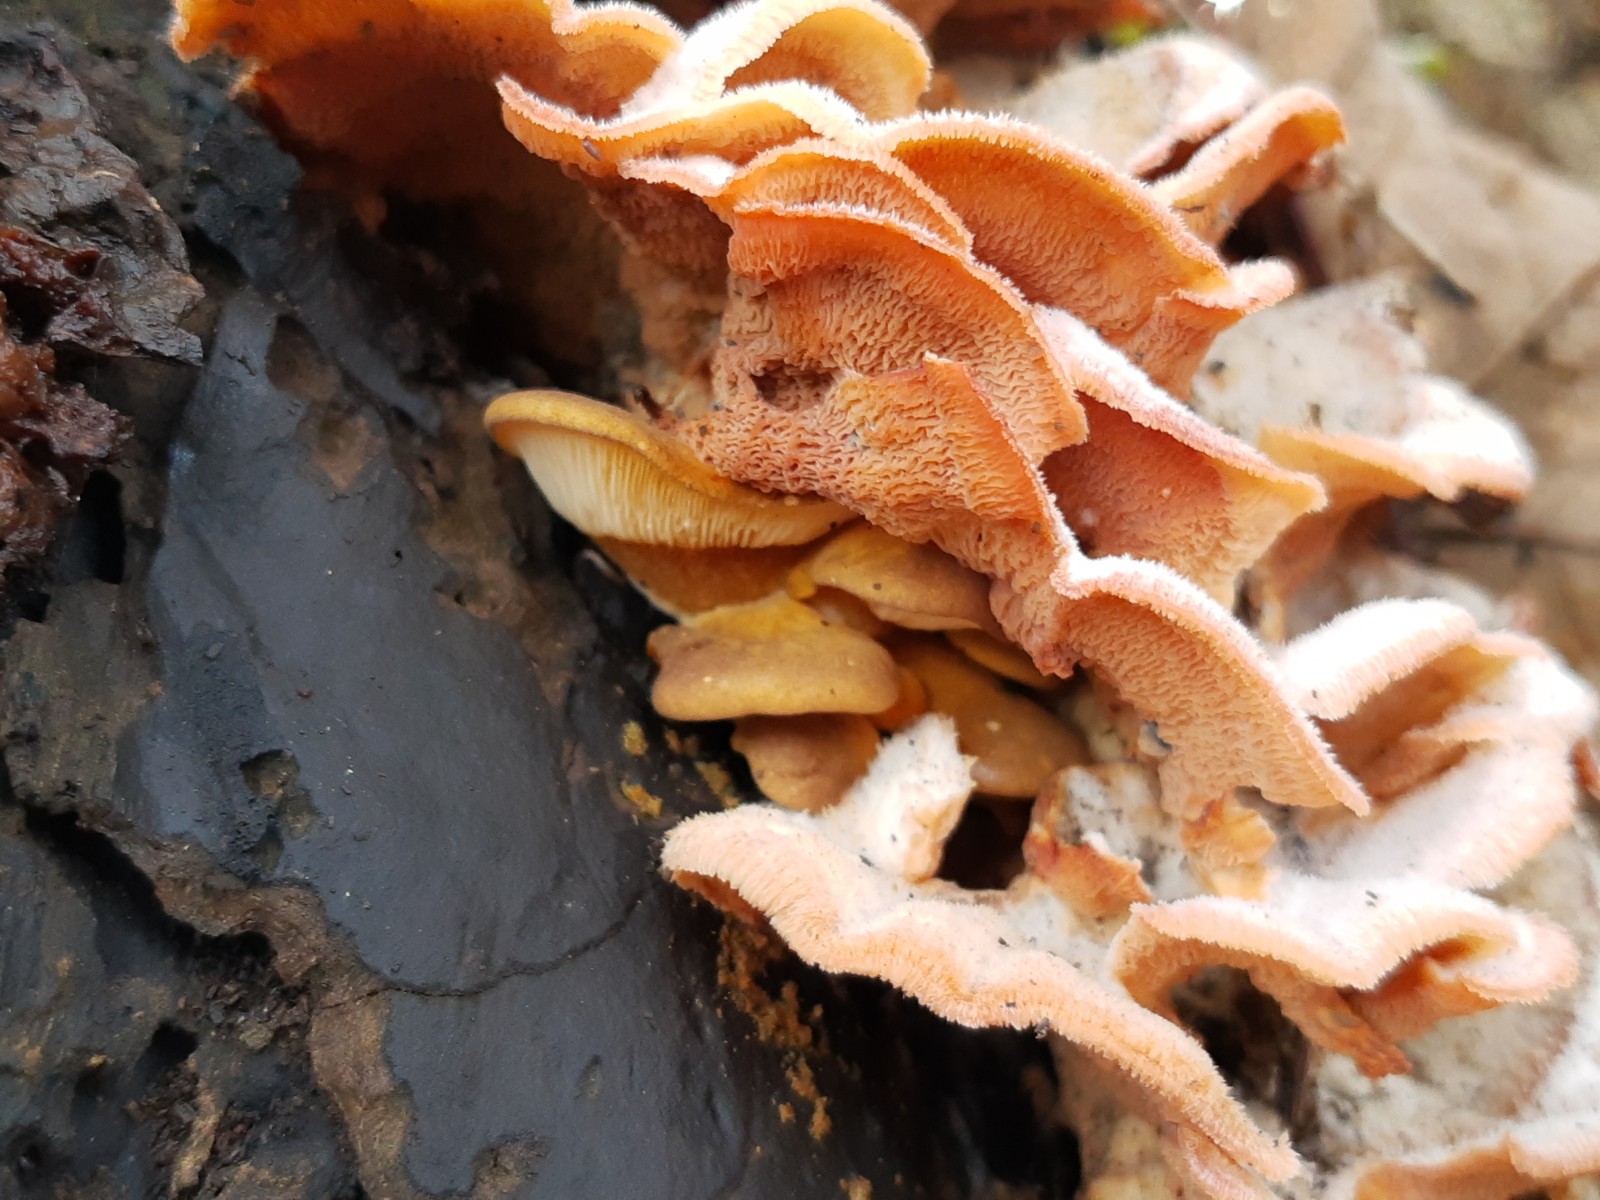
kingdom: Fungi
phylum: Basidiomycota
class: Agaricomycetes
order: Polyporales
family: Meruliaceae
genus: Phlebia
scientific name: Phlebia tremellosa
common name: bævrende åresvamp
